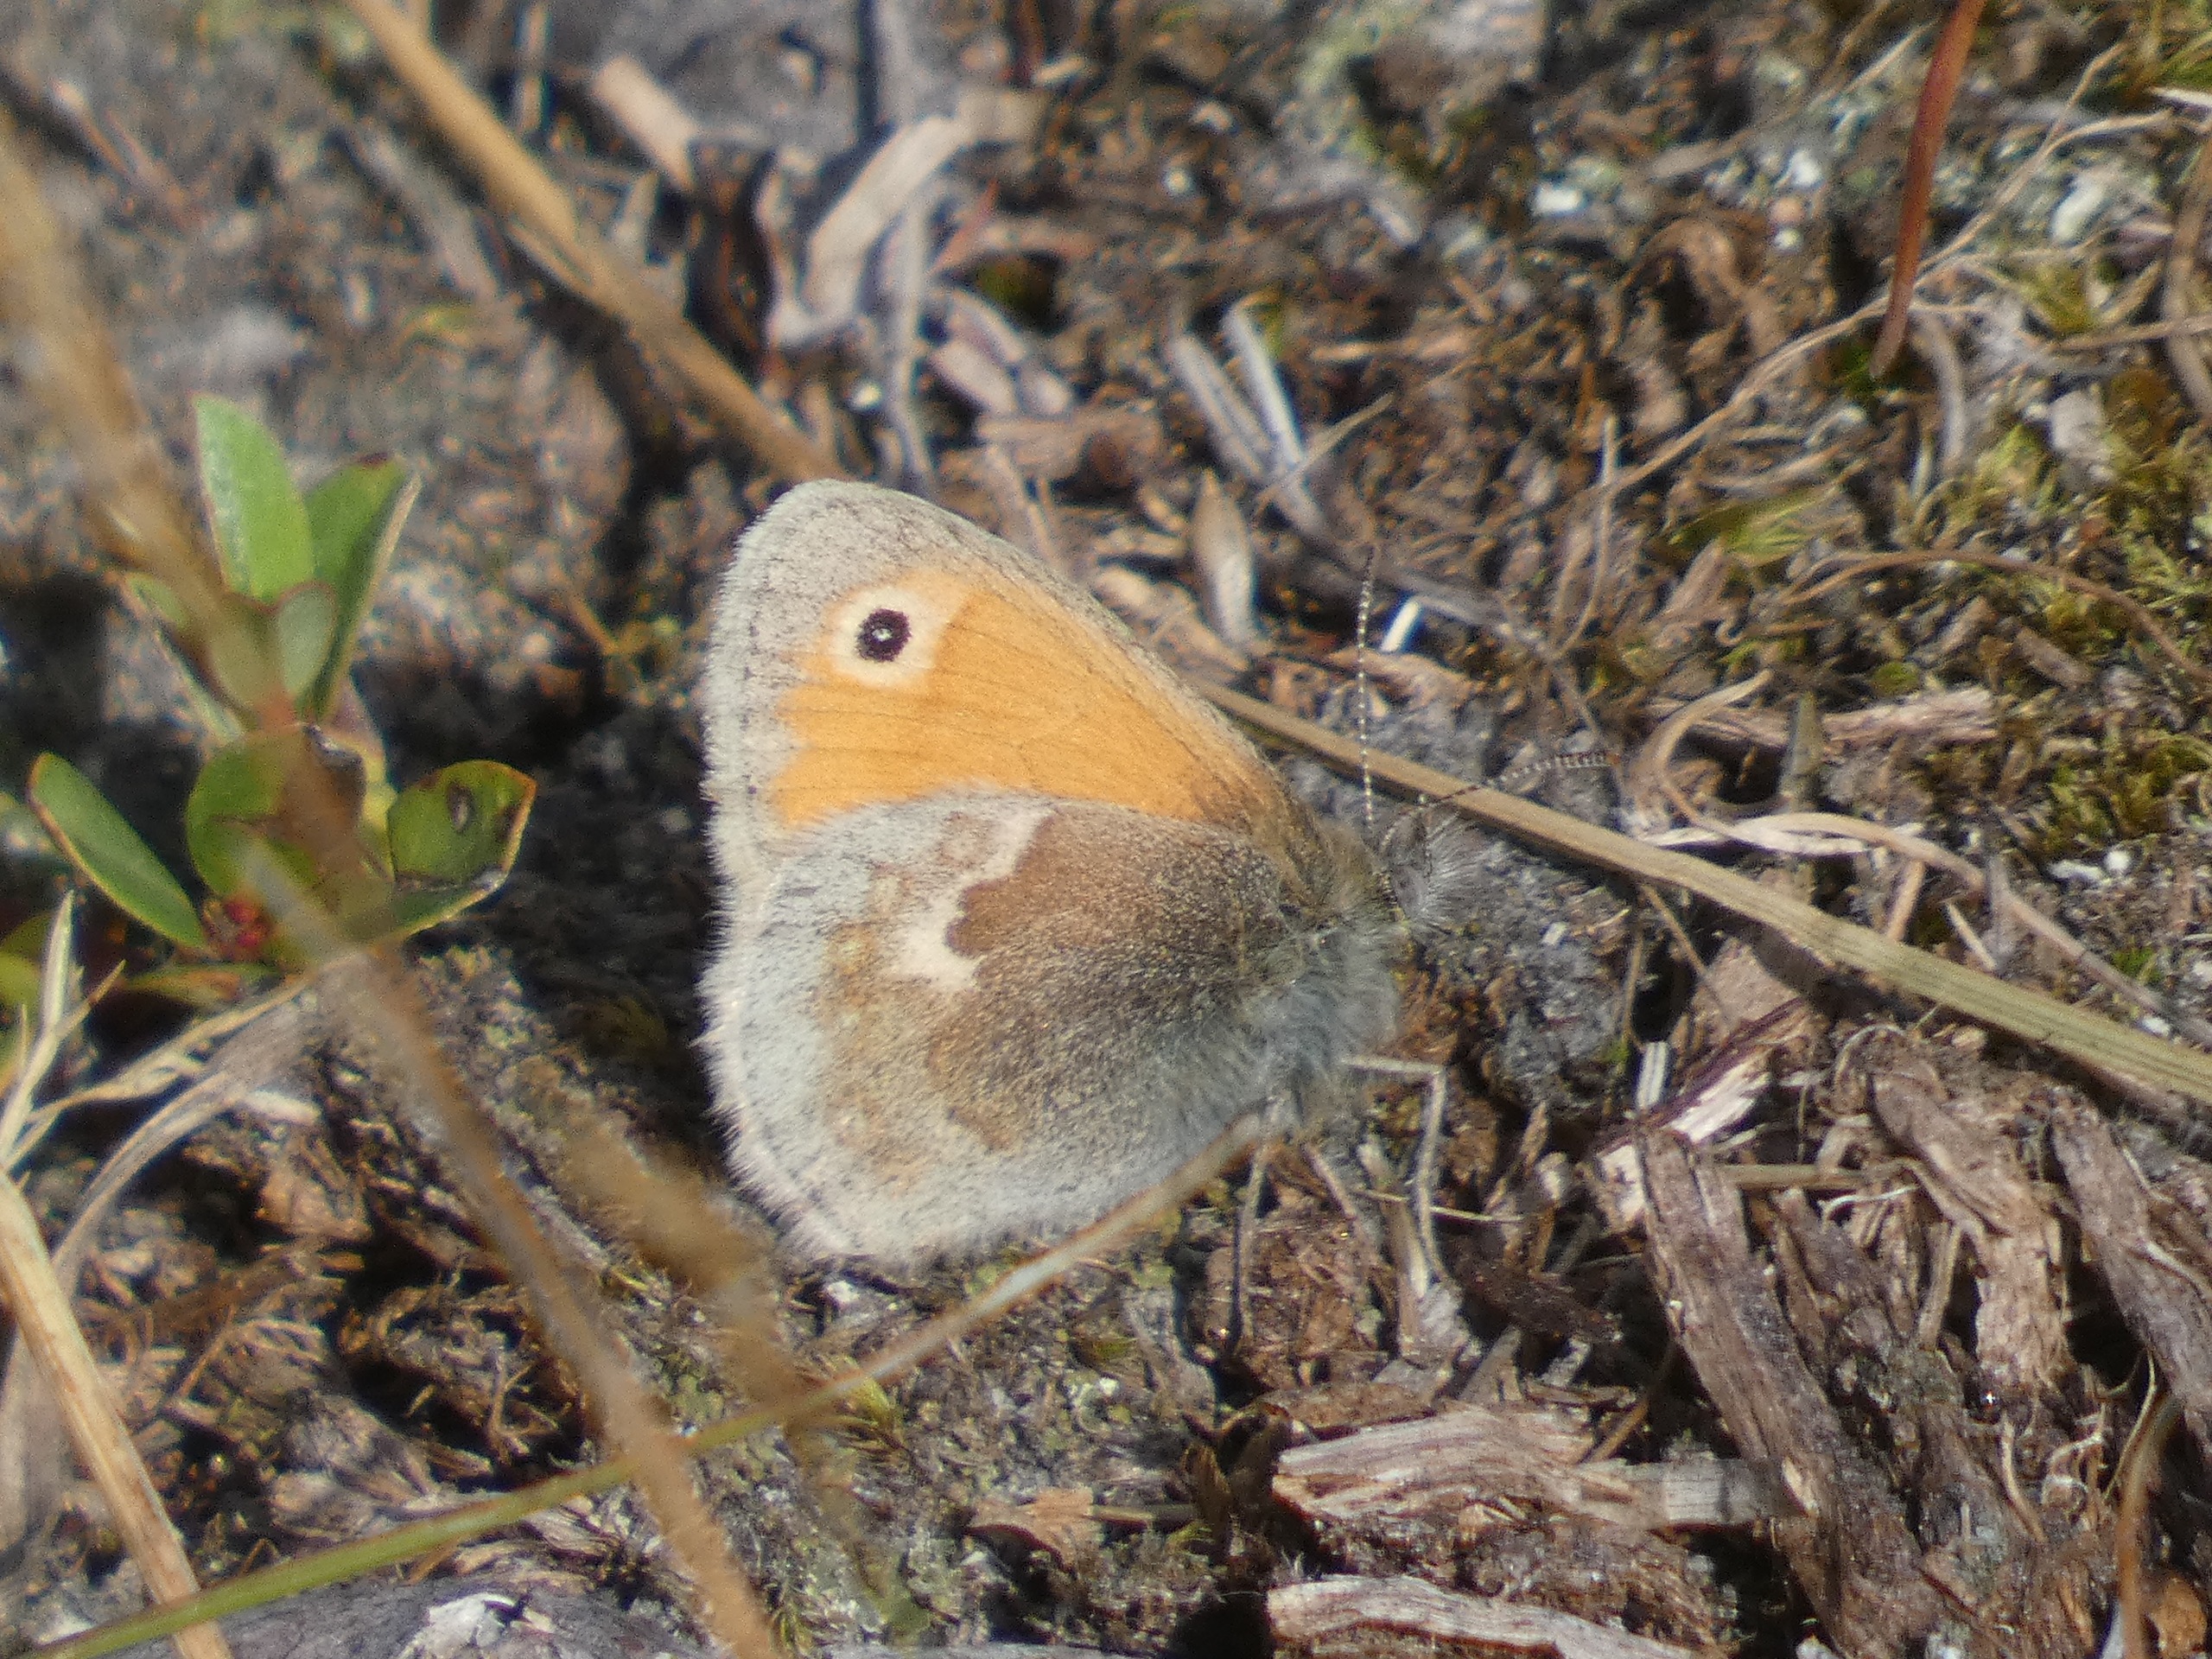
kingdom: Animalia
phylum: Arthropoda
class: Insecta
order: Lepidoptera
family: Nymphalidae
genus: Coenonympha
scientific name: Coenonympha pamphilus
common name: Okkergul randøje
